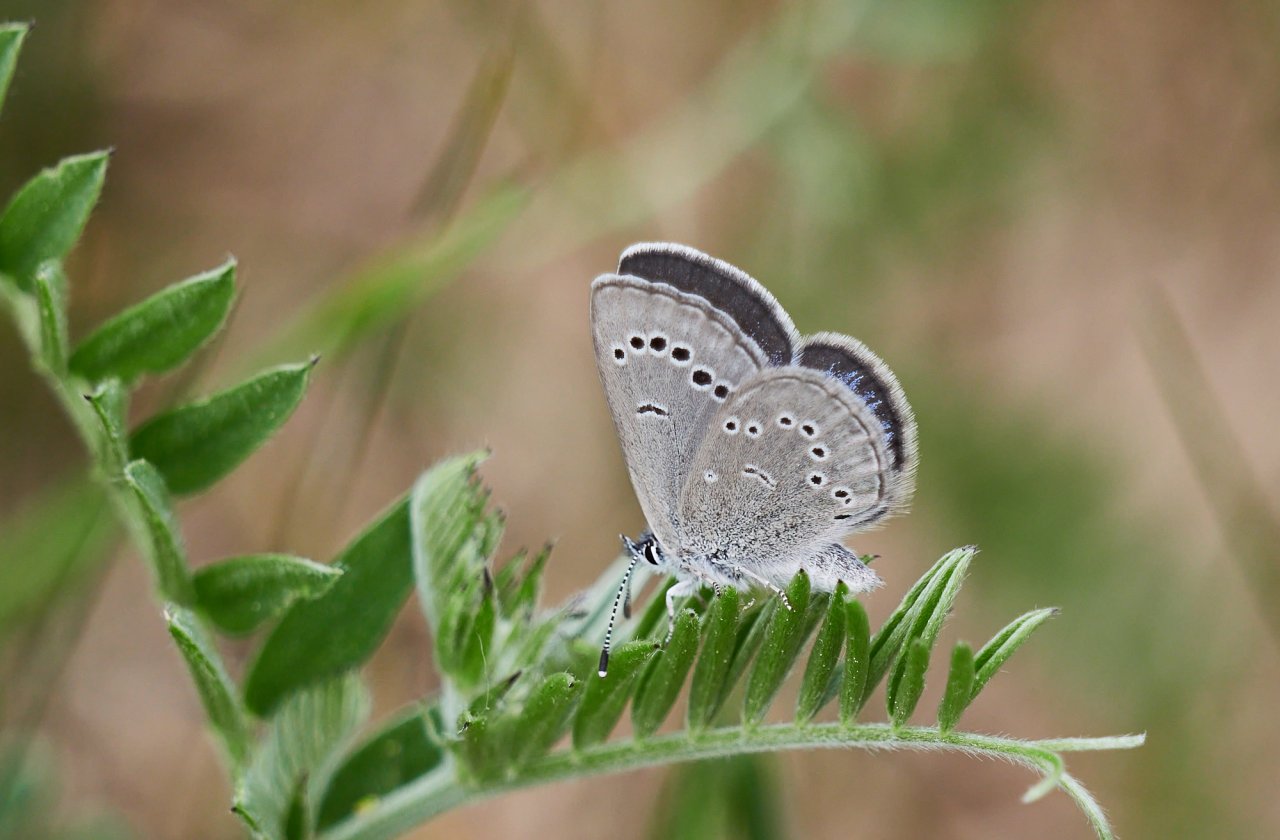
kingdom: Animalia
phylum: Arthropoda
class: Insecta
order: Lepidoptera
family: Lycaenidae
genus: Glaucopsyche
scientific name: Glaucopsyche lygdamus
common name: Silvery Blue
